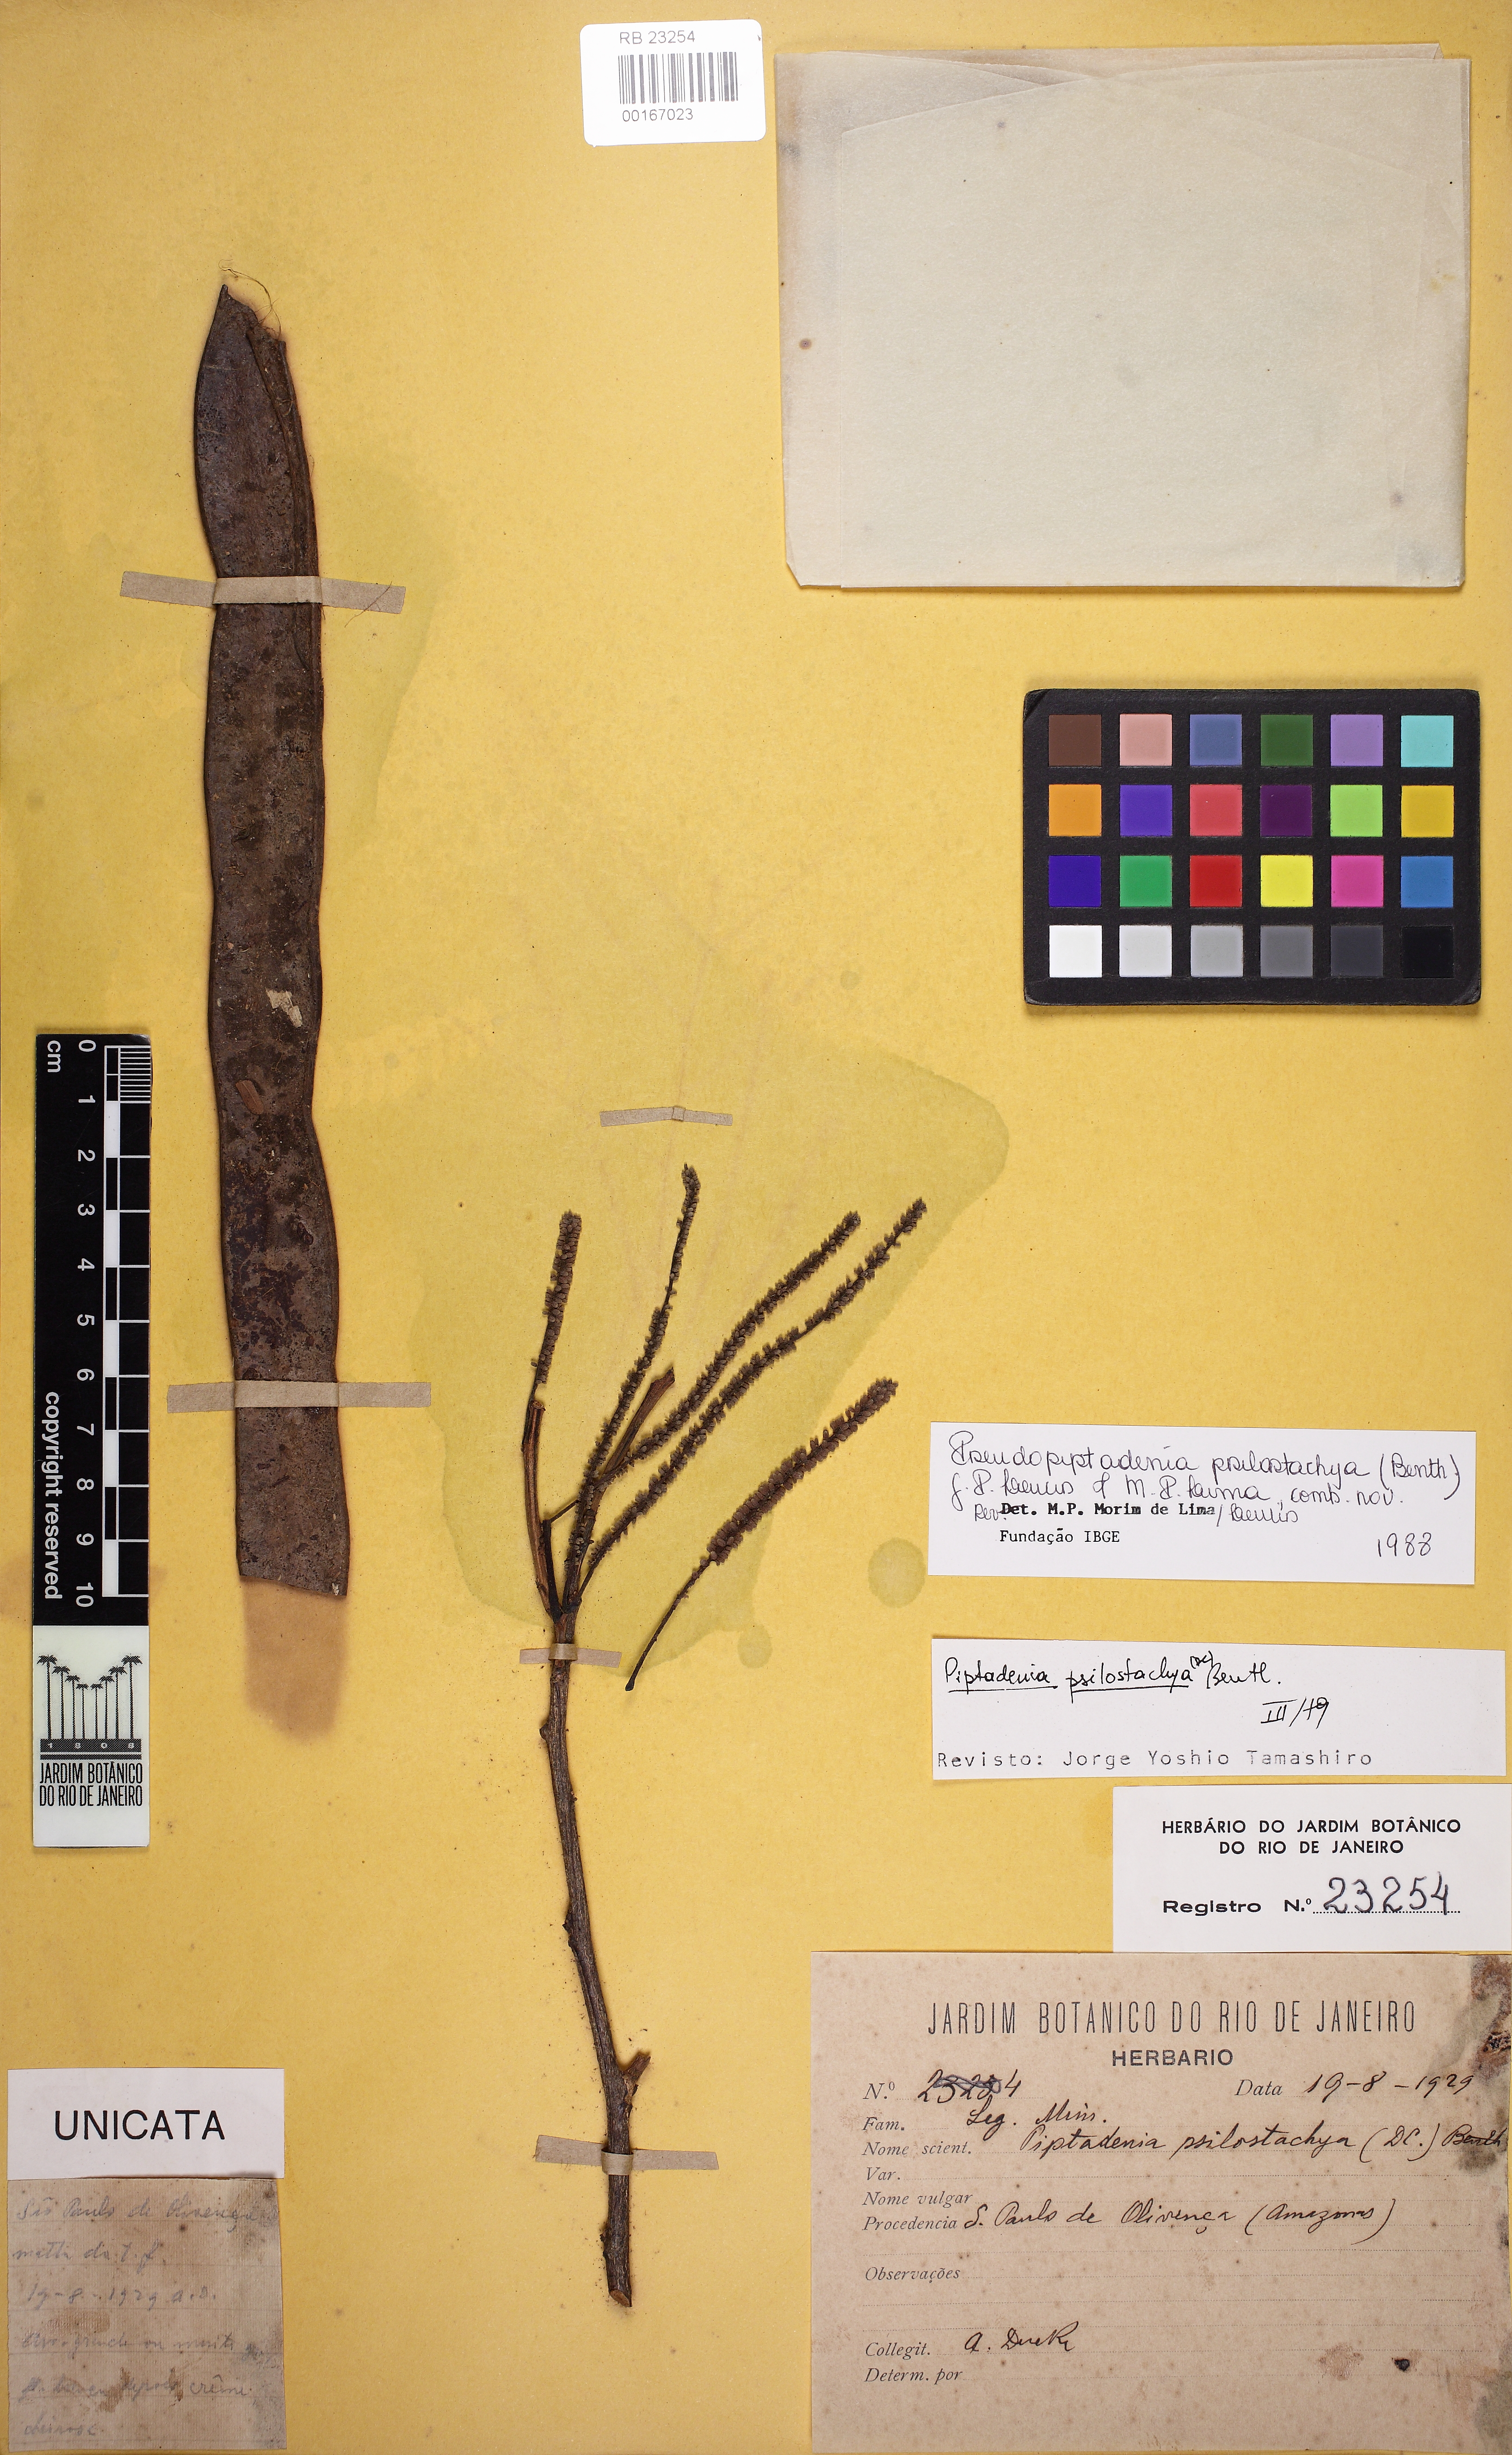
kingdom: Plantae
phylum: Tracheophyta
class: Magnoliopsida
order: Fabales
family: Fabaceae
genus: Pseudopiptadenia
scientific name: Pseudopiptadenia leptostachya
